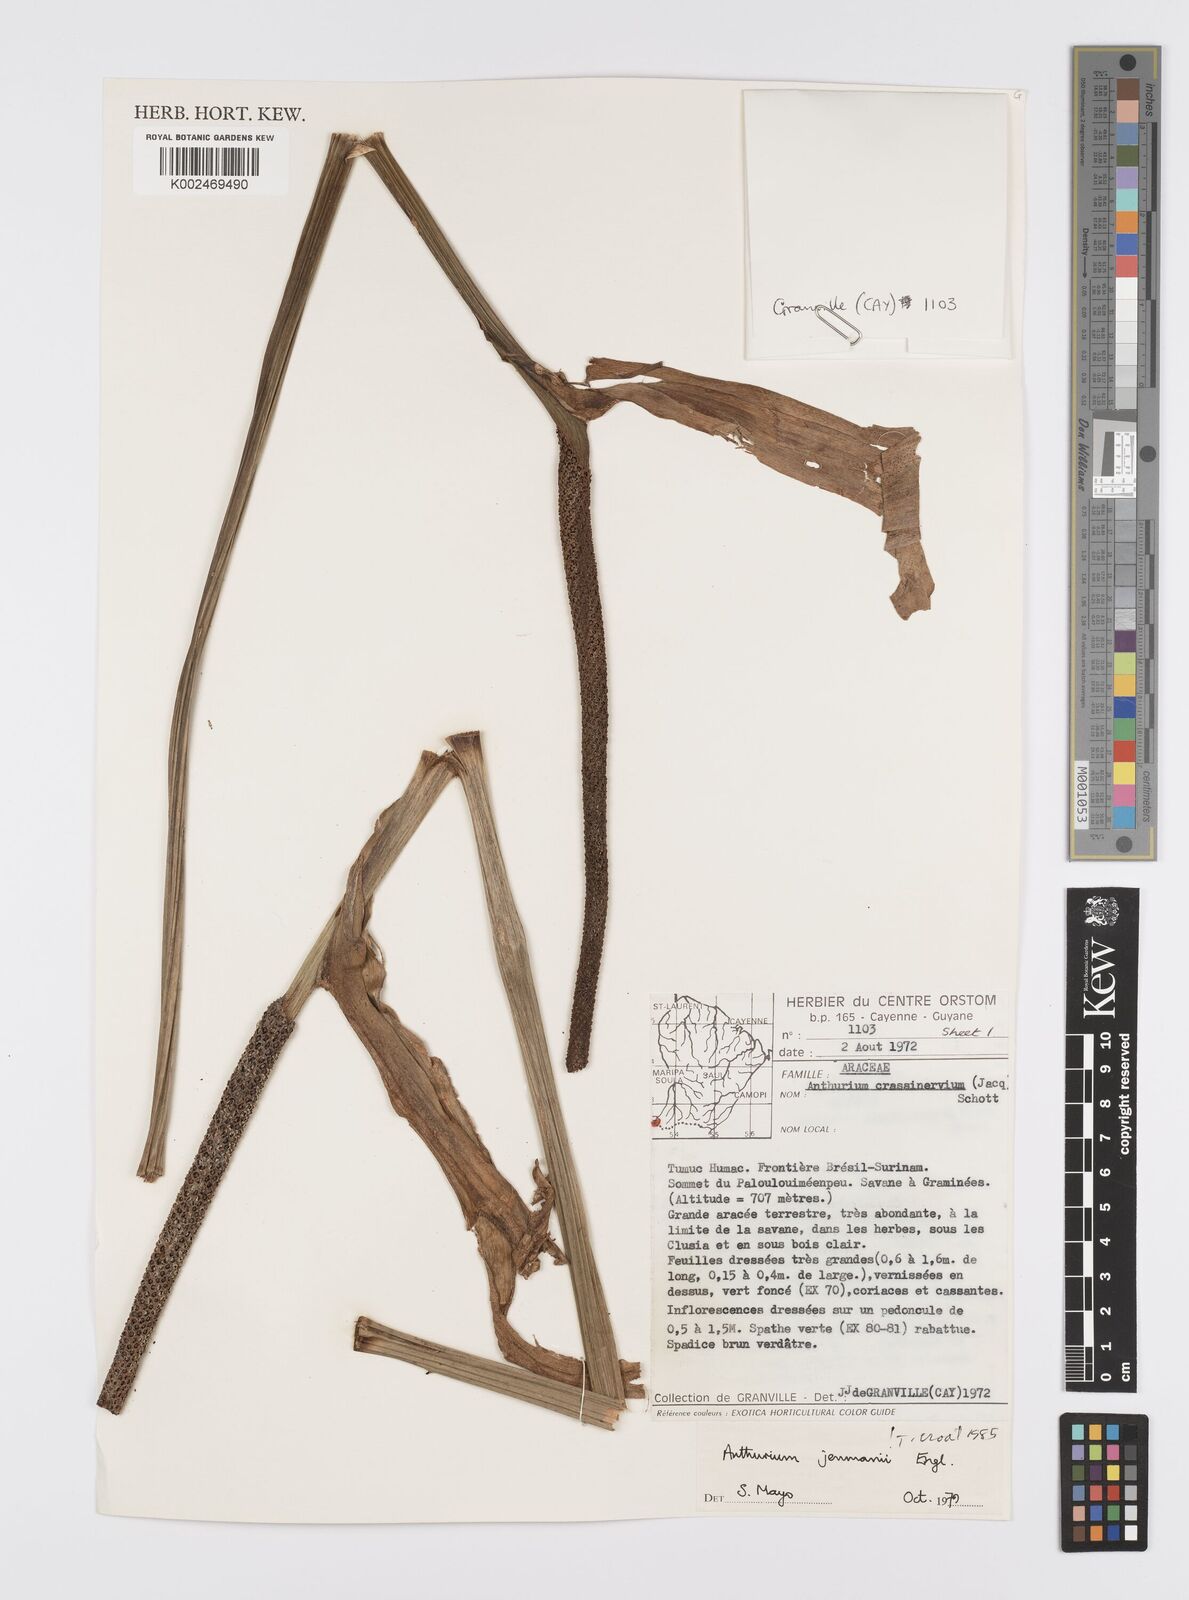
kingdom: Plantae
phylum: Tracheophyta
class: Liliopsida
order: Alismatales
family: Araceae
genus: Anthurium
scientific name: Anthurium jenmanii
